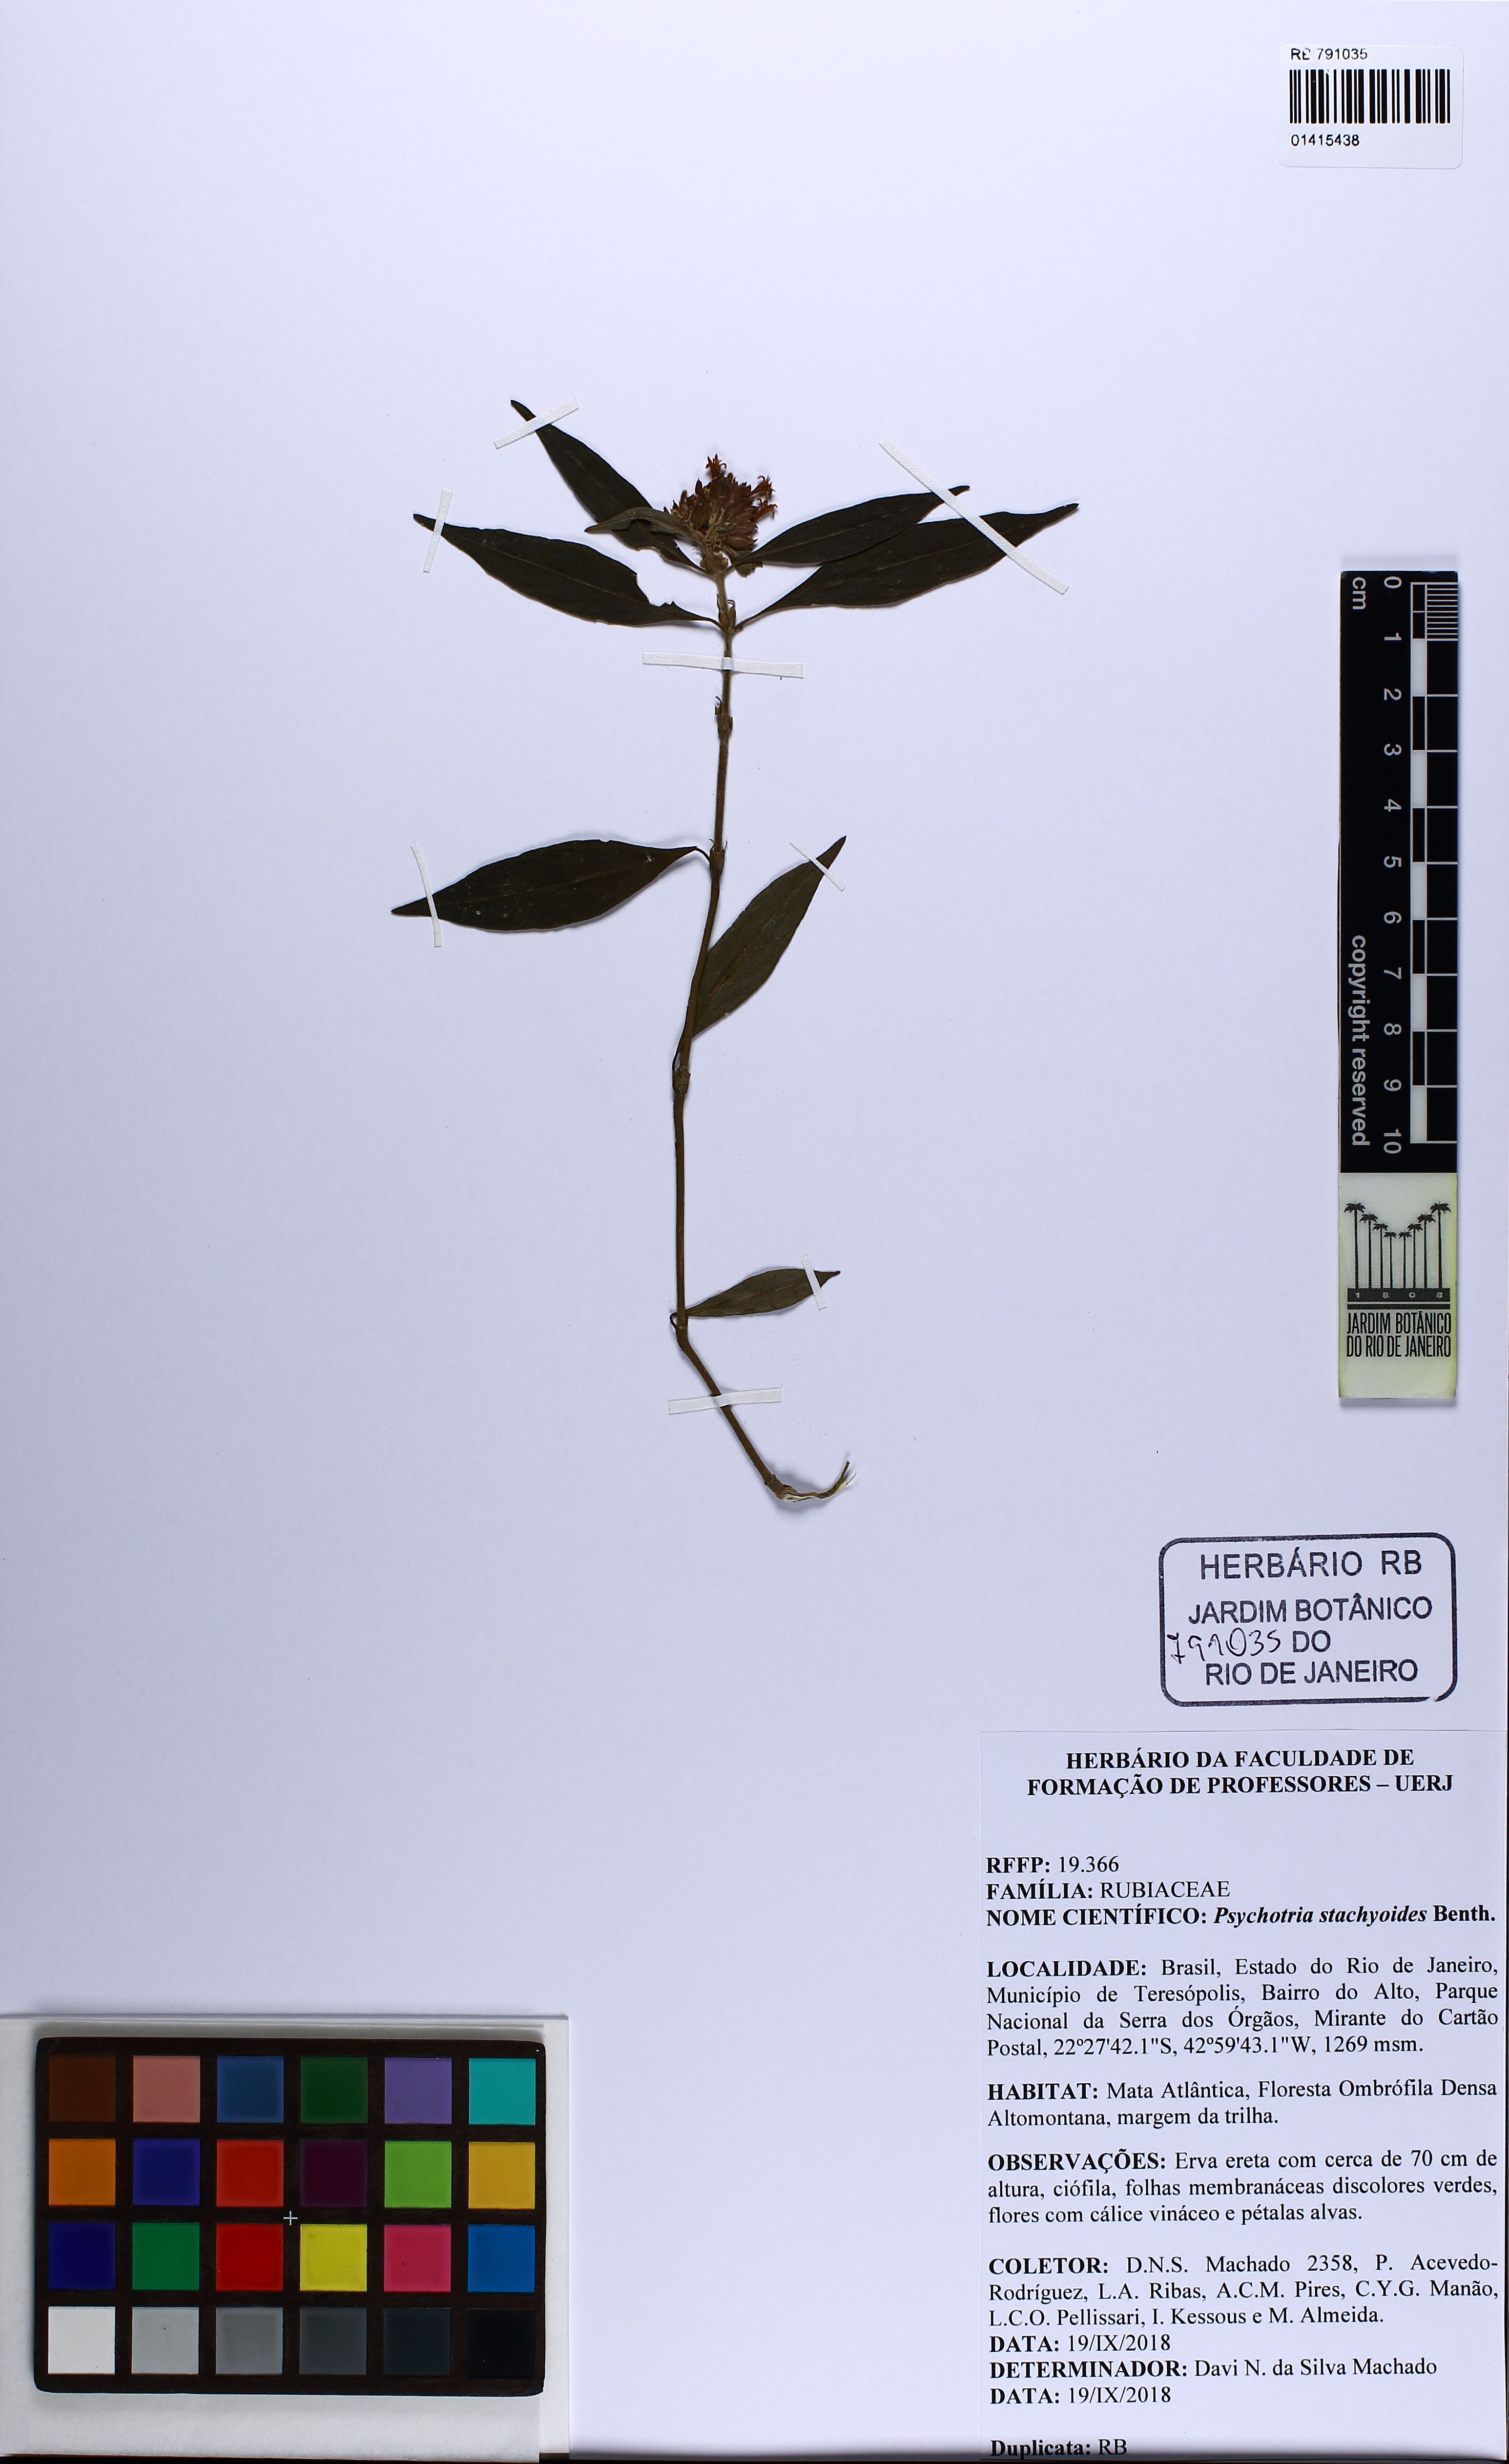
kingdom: Plantae
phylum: Tracheophyta
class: Magnoliopsida
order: Gentianales
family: Rubiaceae
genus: Psychotria
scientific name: Psychotria stachyoides
